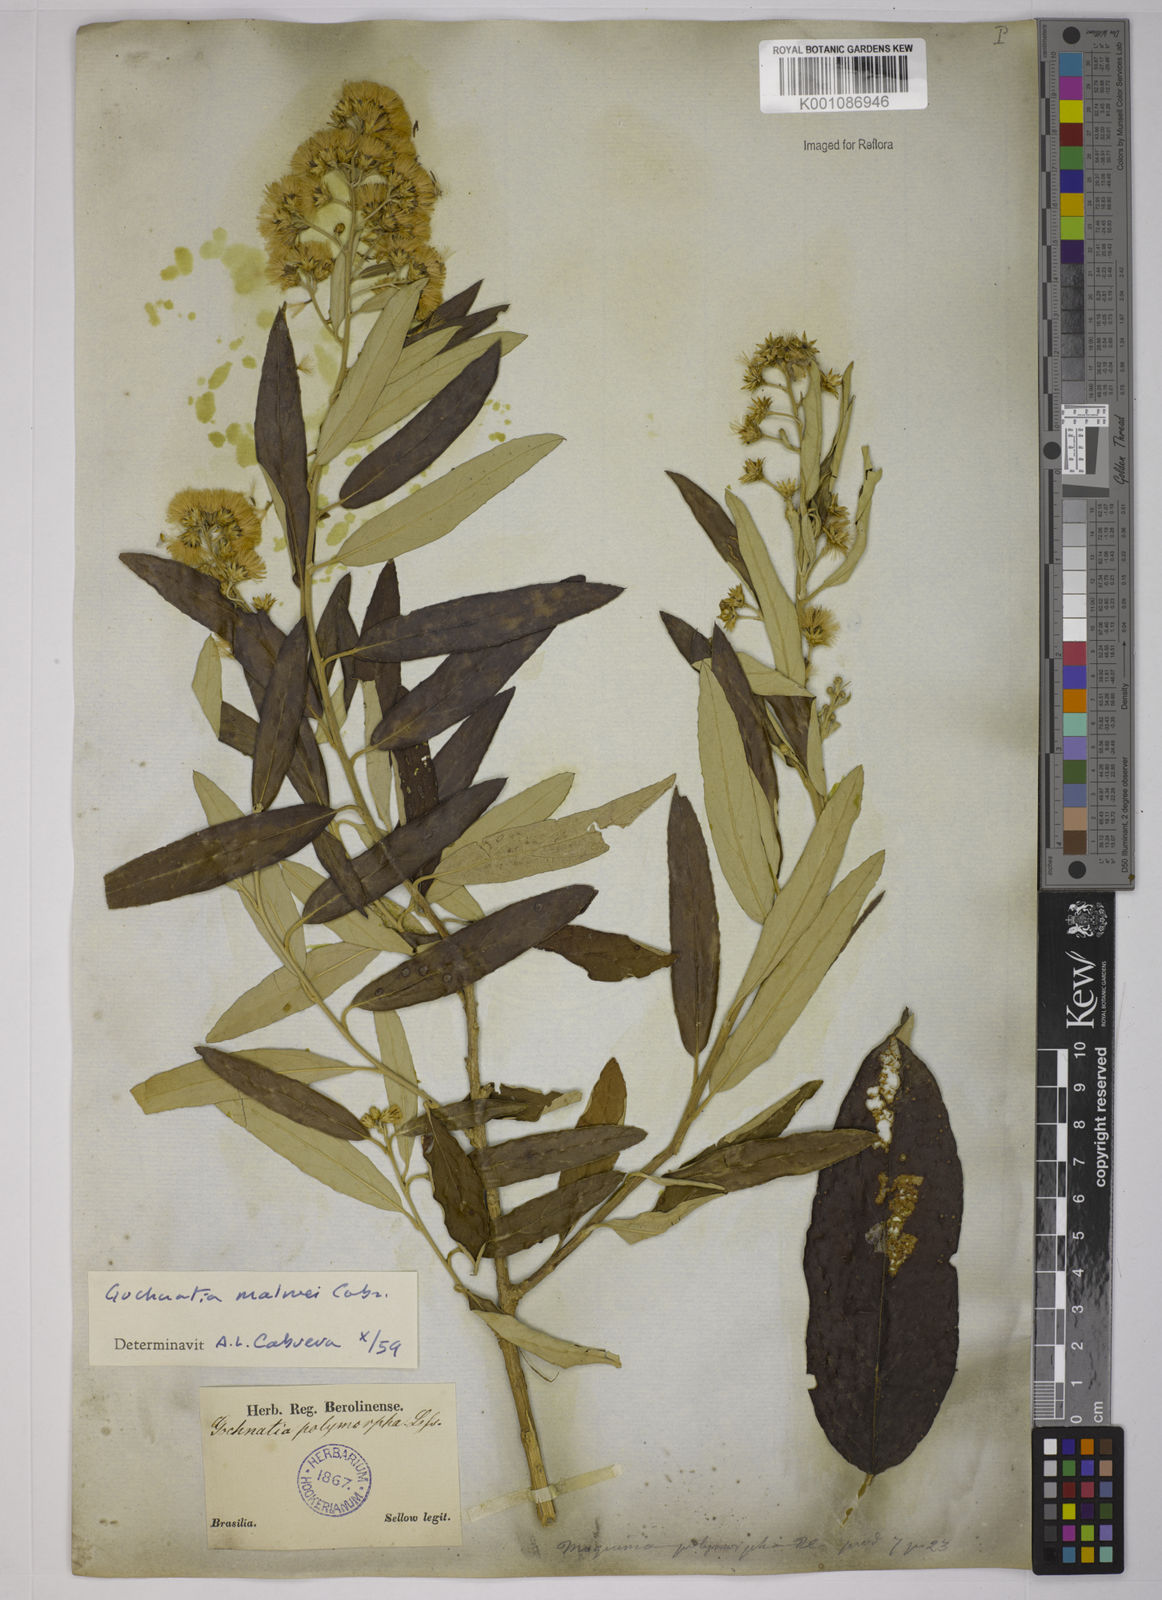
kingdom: Plantae
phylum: Tracheophyta
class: Magnoliopsida
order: Asterales
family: Asteraceae
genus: Moquiniastrum
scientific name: Moquiniastrum polymorphum
